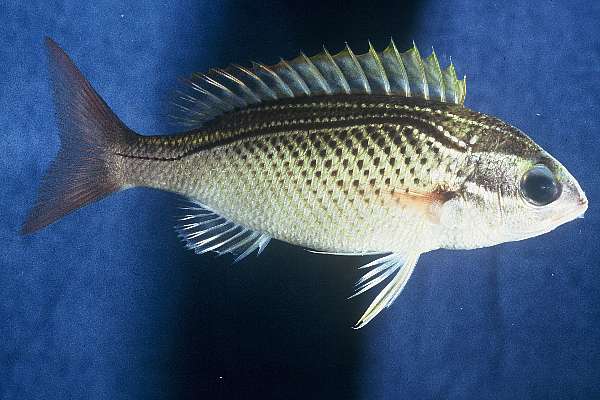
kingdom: Animalia
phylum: Chordata
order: Perciformes
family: Nemipteridae
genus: Scolopsis
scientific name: Scolopsis ghanam
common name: Arabian monocle bream
